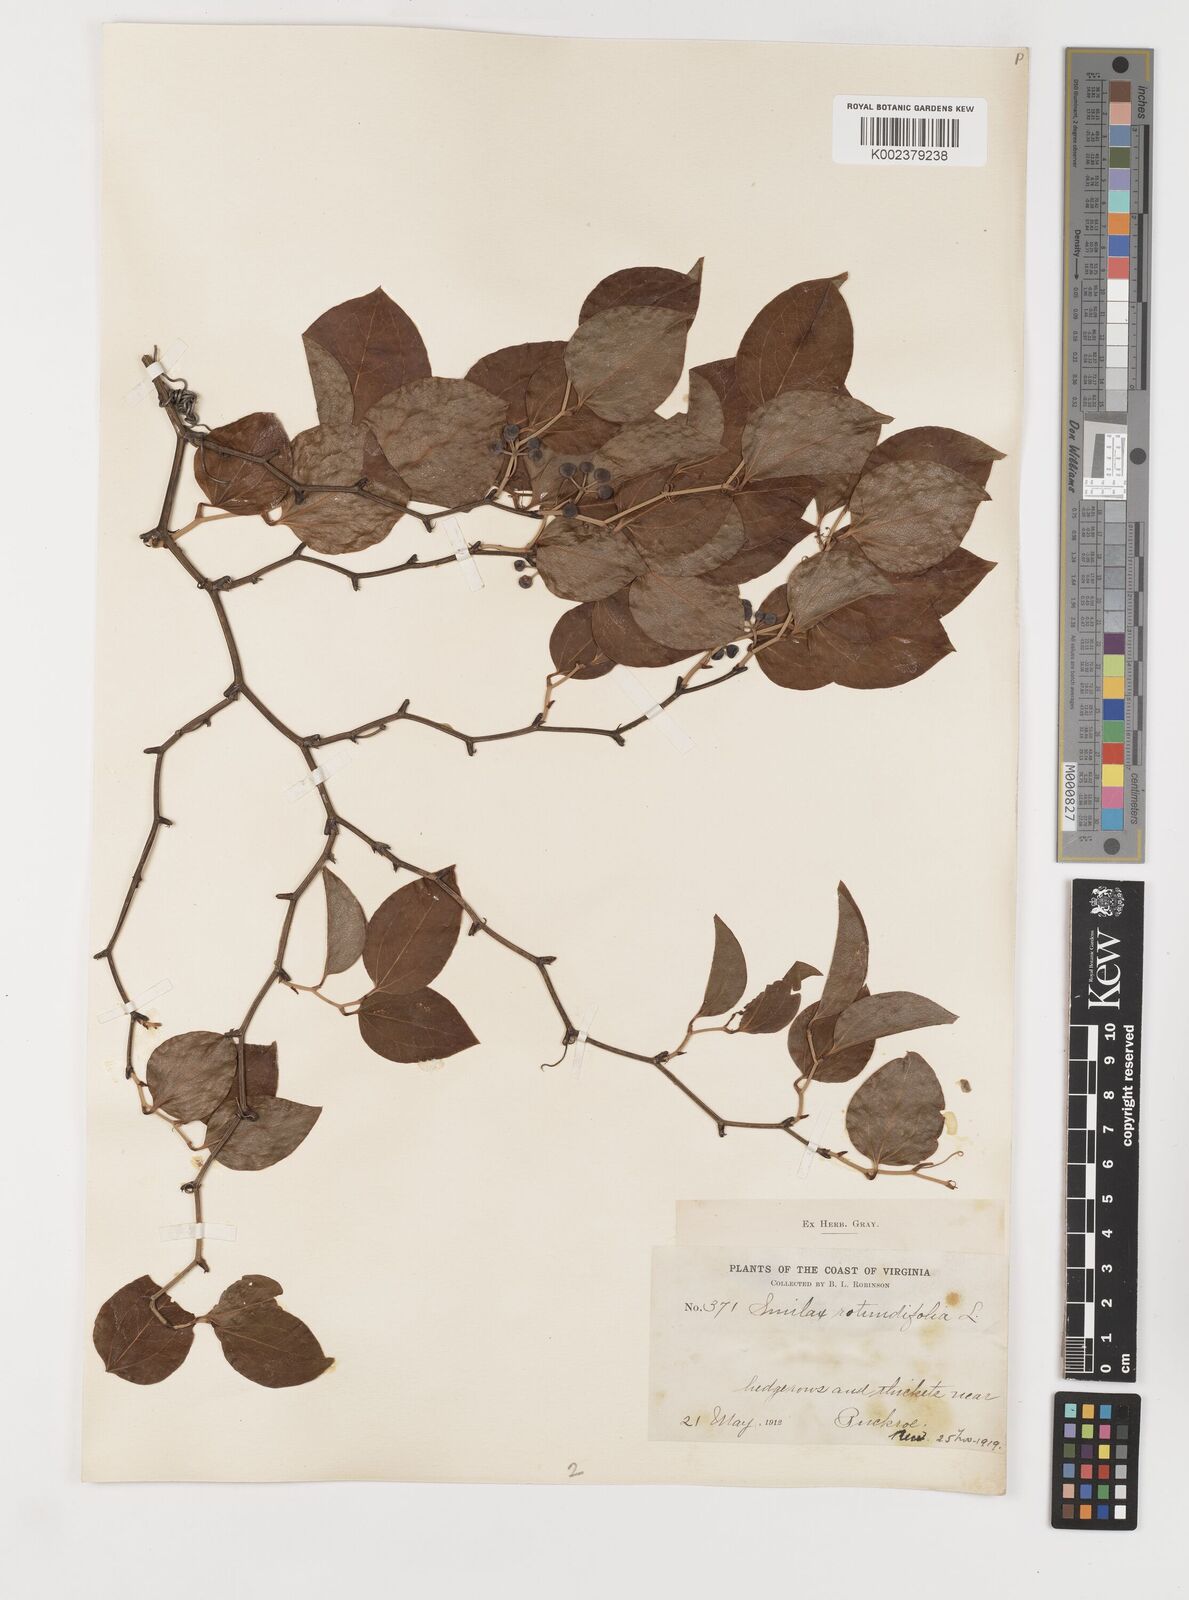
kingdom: Plantae
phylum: Tracheophyta
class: Liliopsida
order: Liliales
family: Smilacaceae
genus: Smilax
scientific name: Smilax rotundifolia
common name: Bullbriar
